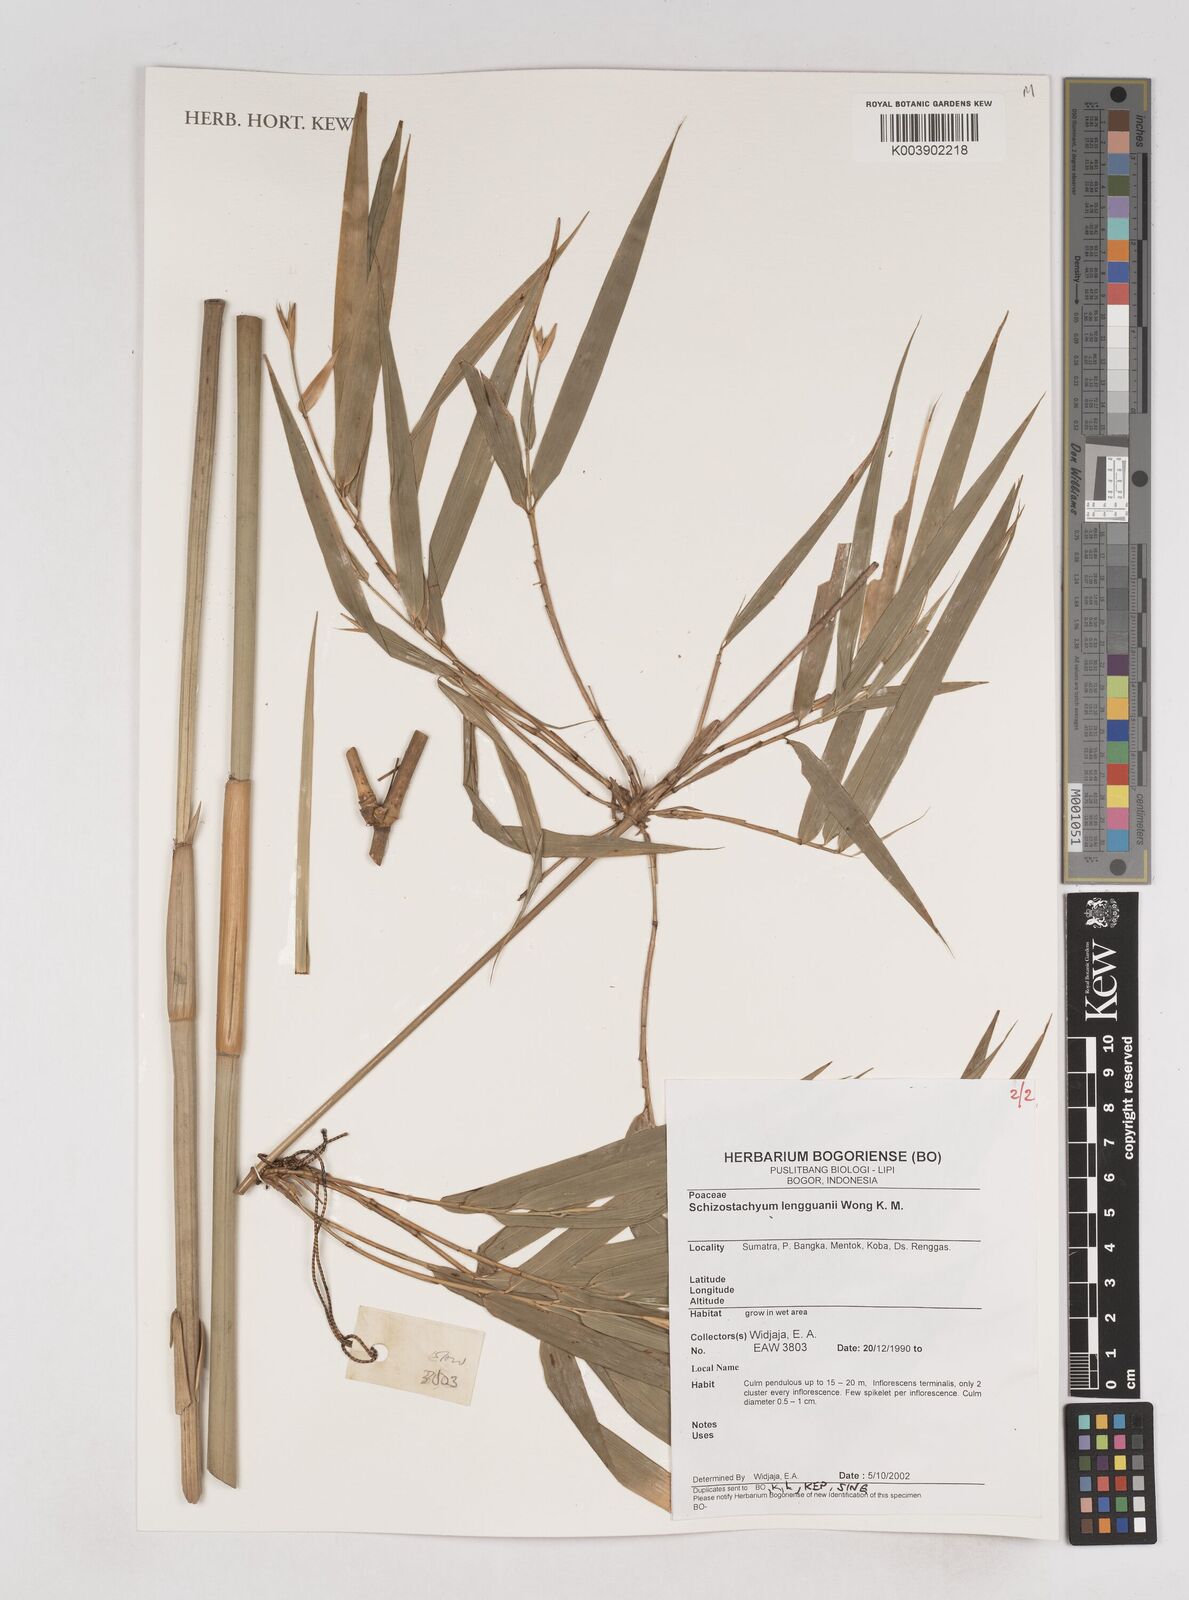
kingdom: Plantae
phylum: Tracheophyta
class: Liliopsida
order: Poales
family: Poaceae
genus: Schizostachyum
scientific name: Schizostachyum lengguanii
